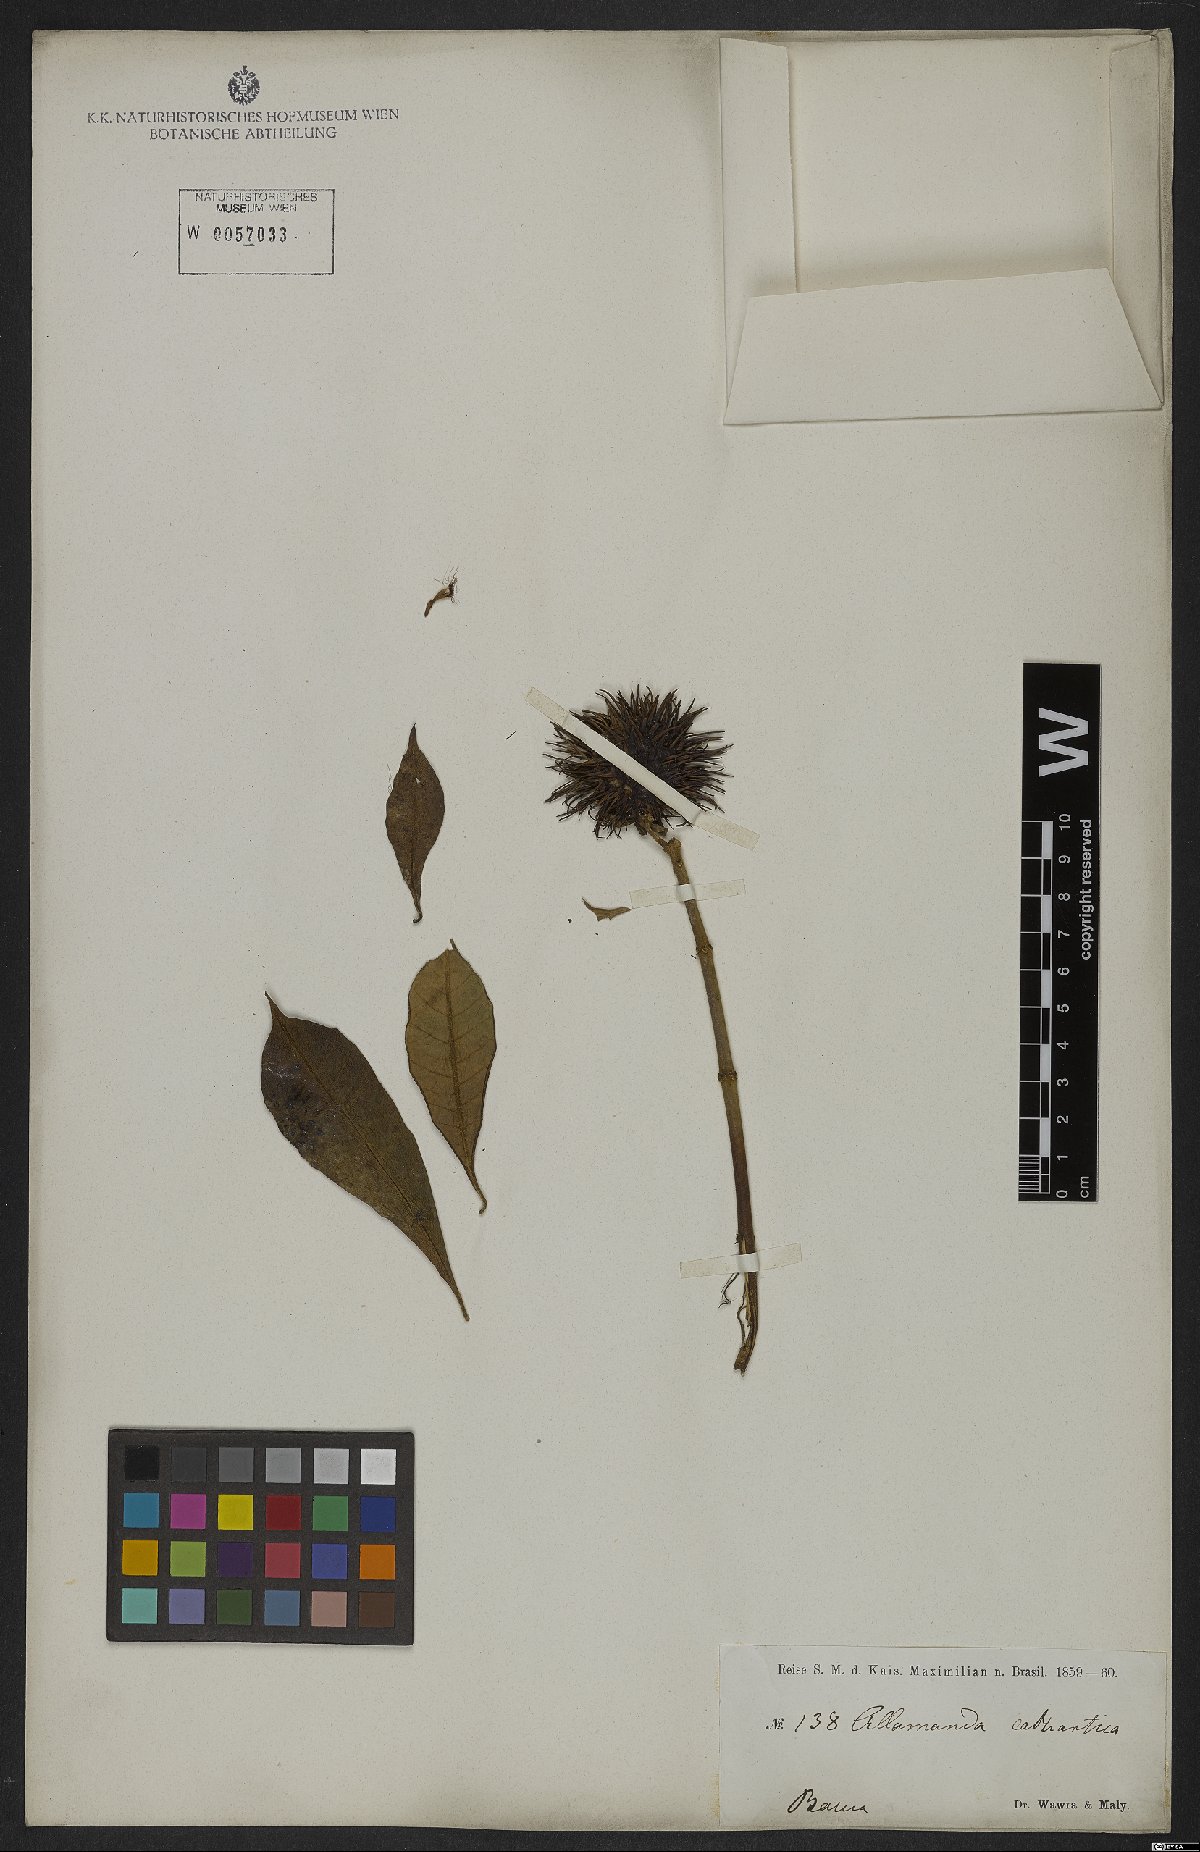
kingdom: Plantae
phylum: Tracheophyta
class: Magnoliopsida
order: Gentianales
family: Apocynaceae
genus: Allamanda
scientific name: Allamanda cathartica
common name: Golden trumpet
